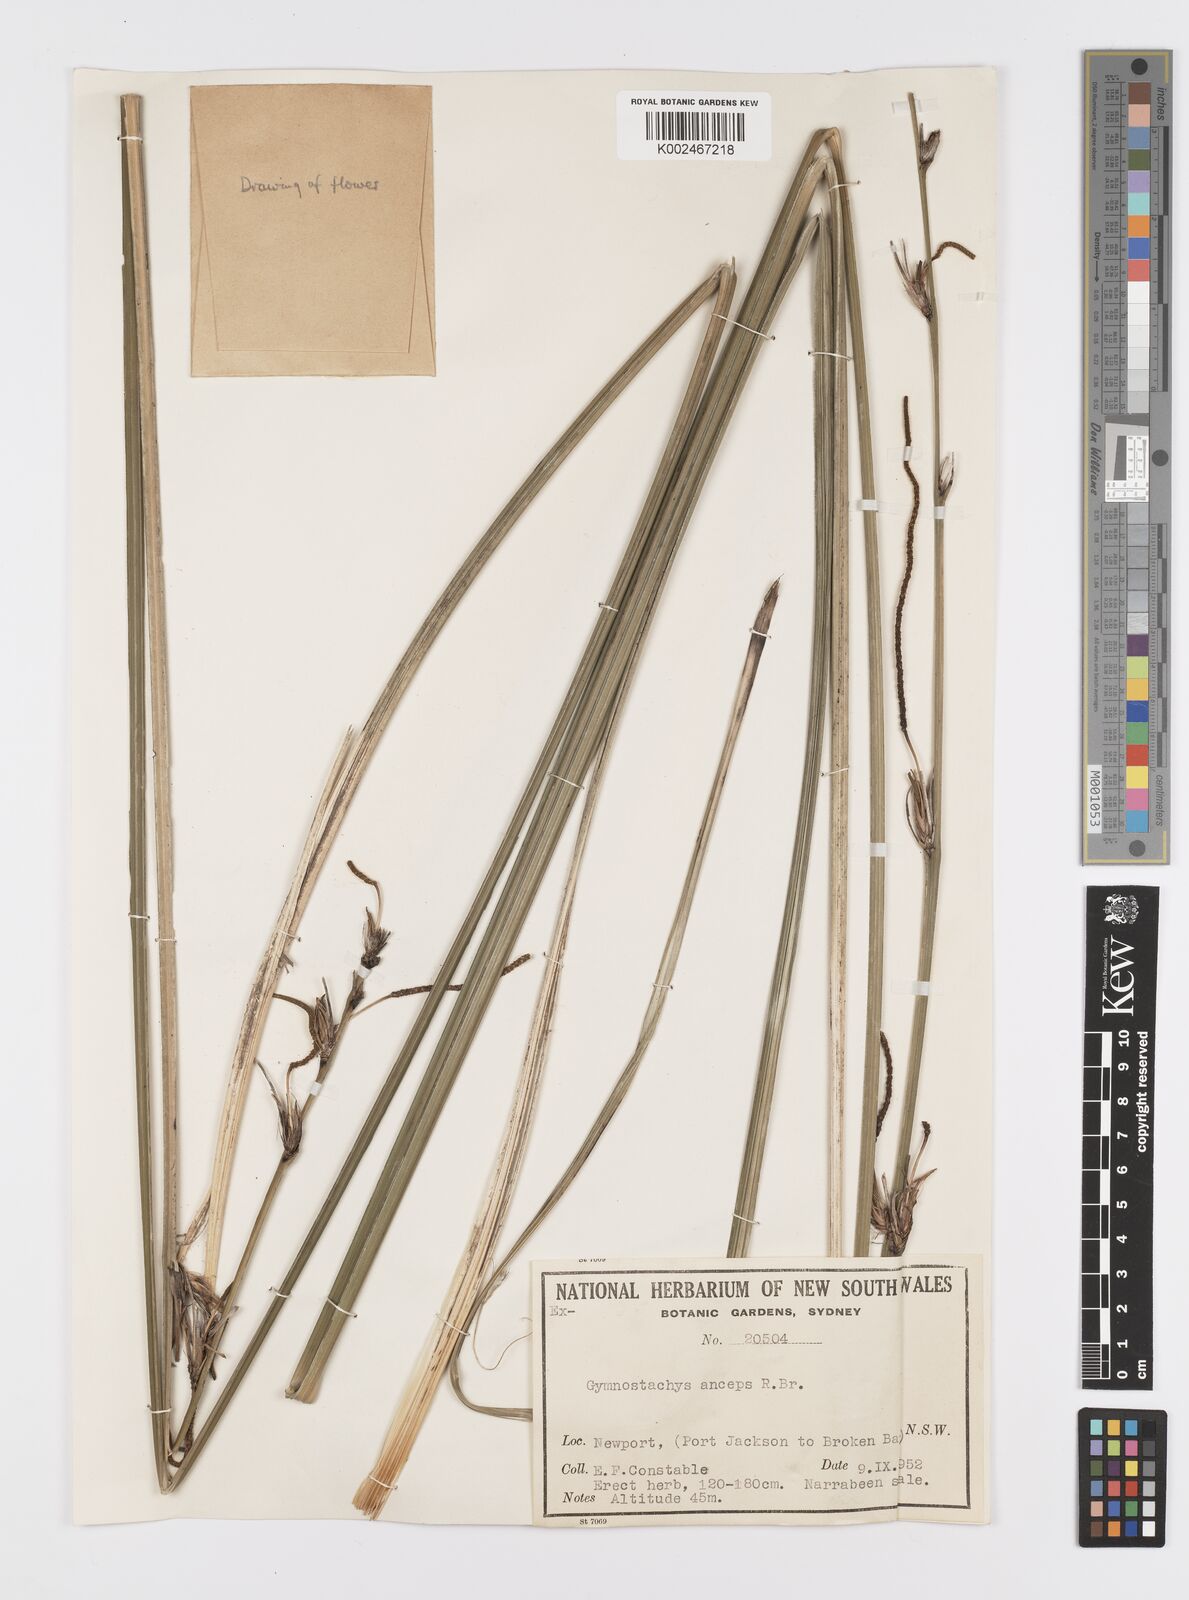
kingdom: Plantae
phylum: Tracheophyta
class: Liliopsida
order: Alismatales
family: Araceae
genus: Gymnostachys
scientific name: Gymnostachys anceps
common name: Settler's-flax
